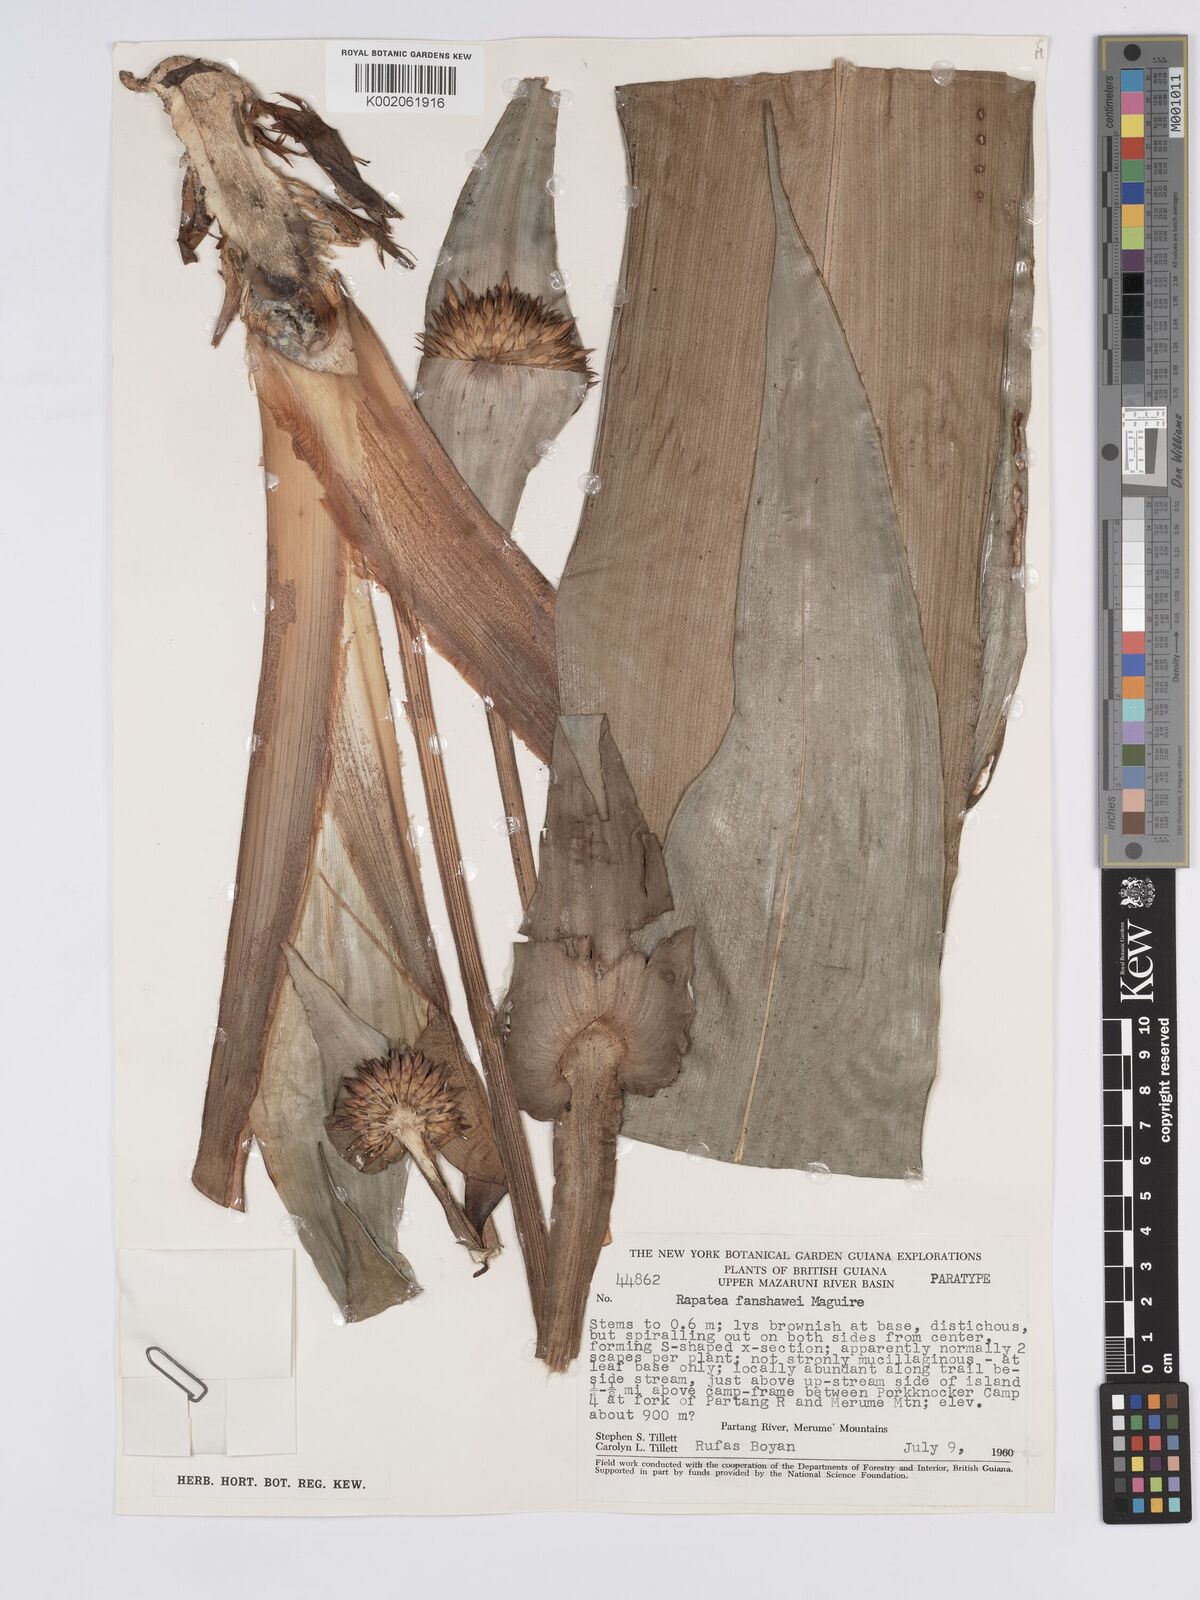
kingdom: Plantae
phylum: Tracheophyta
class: Liliopsida
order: Poales
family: Rapateaceae
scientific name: Rapateaceae
